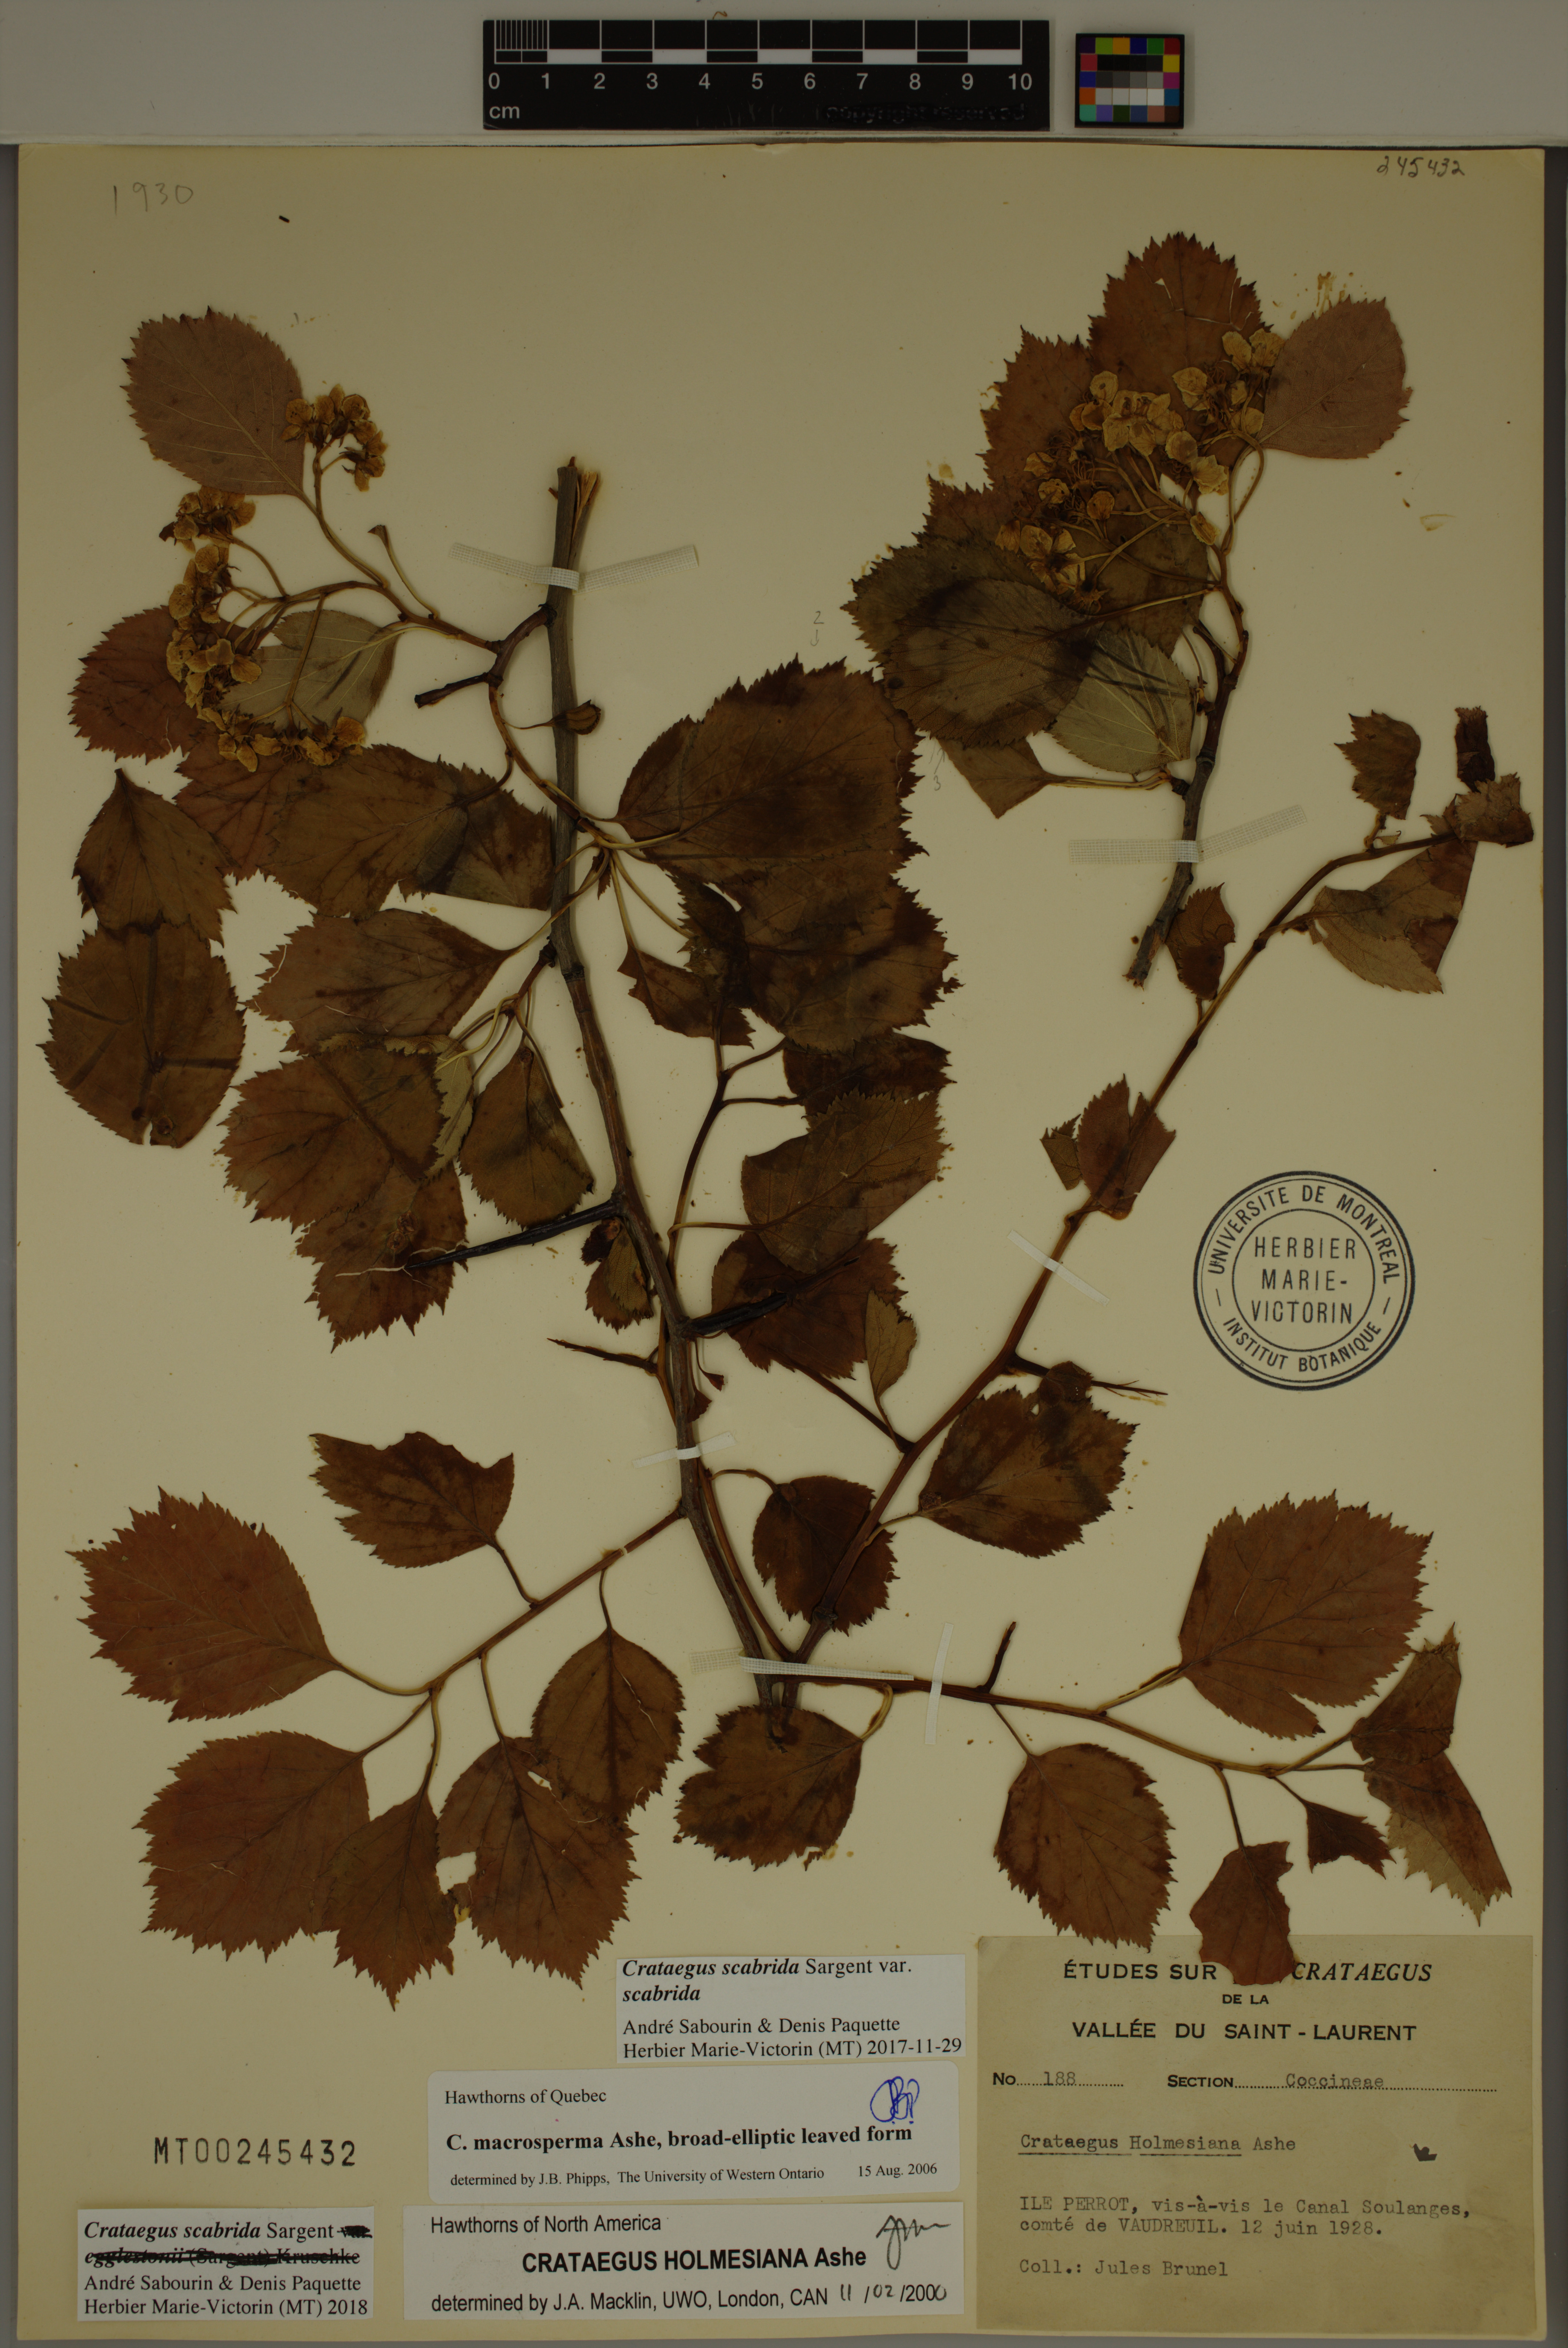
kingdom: Plantae
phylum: Tracheophyta
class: Magnoliopsida
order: Rosales
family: Rosaceae
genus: Crataegus
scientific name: Crataegus scabrida
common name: Rough hawthorn
